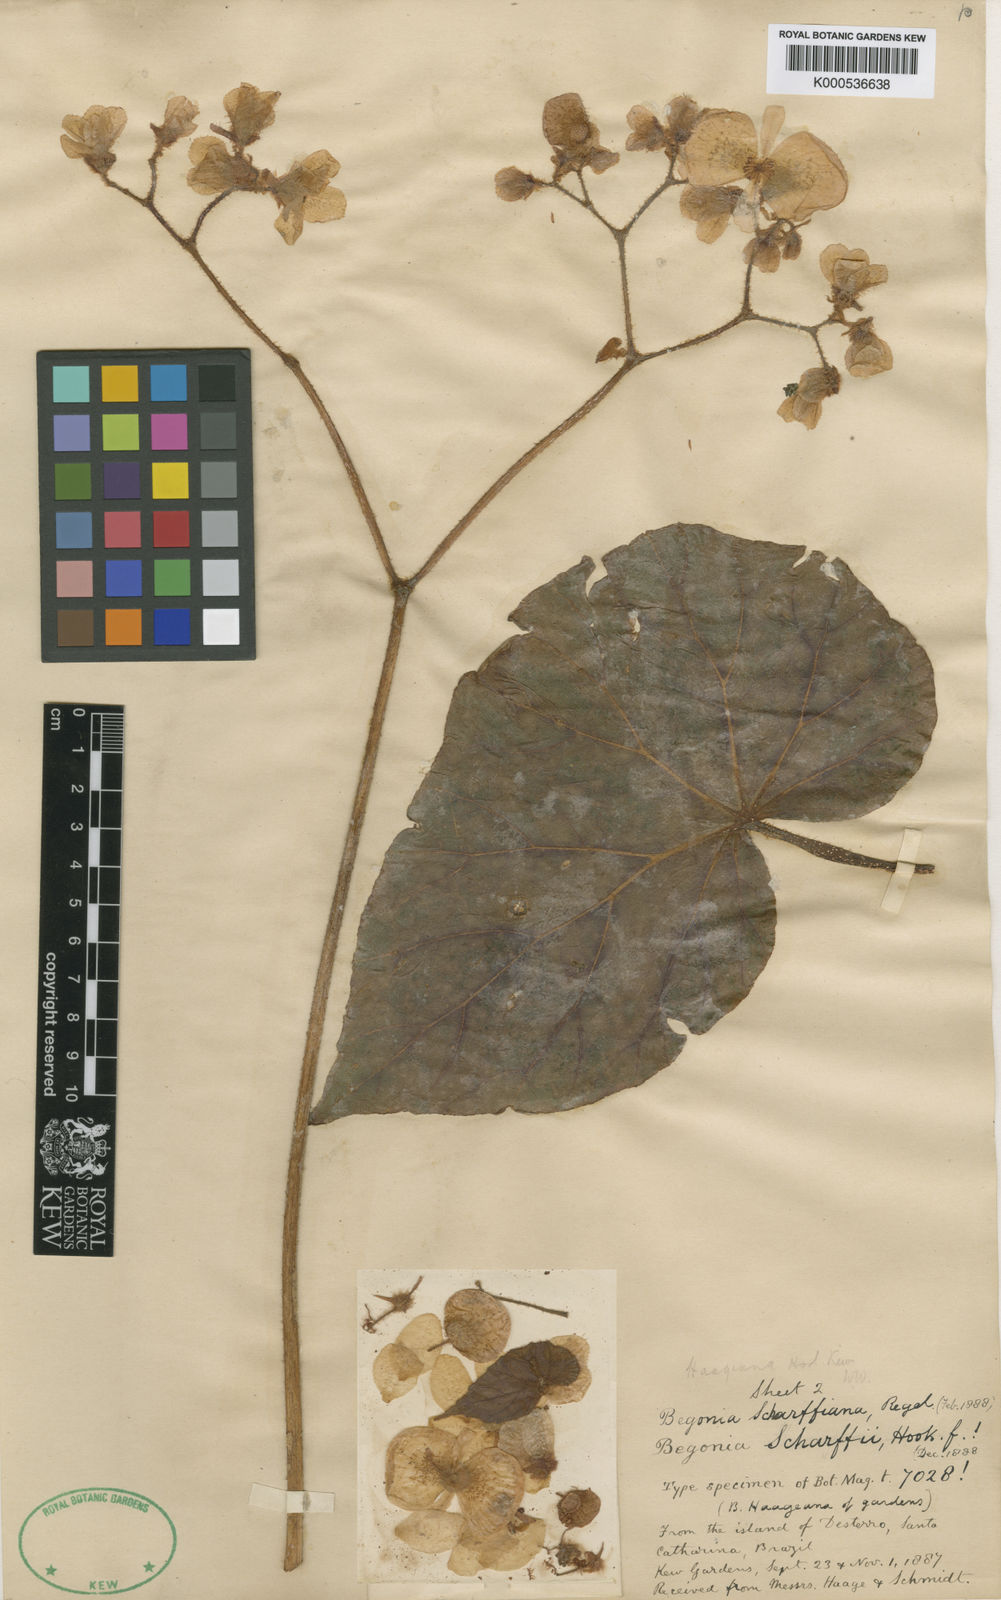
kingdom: Plantae
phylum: Tracheophyta
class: Magnoliopsida
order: Cucurbitales
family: Begoniaceae
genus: Begonia
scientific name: Begonia haageana
